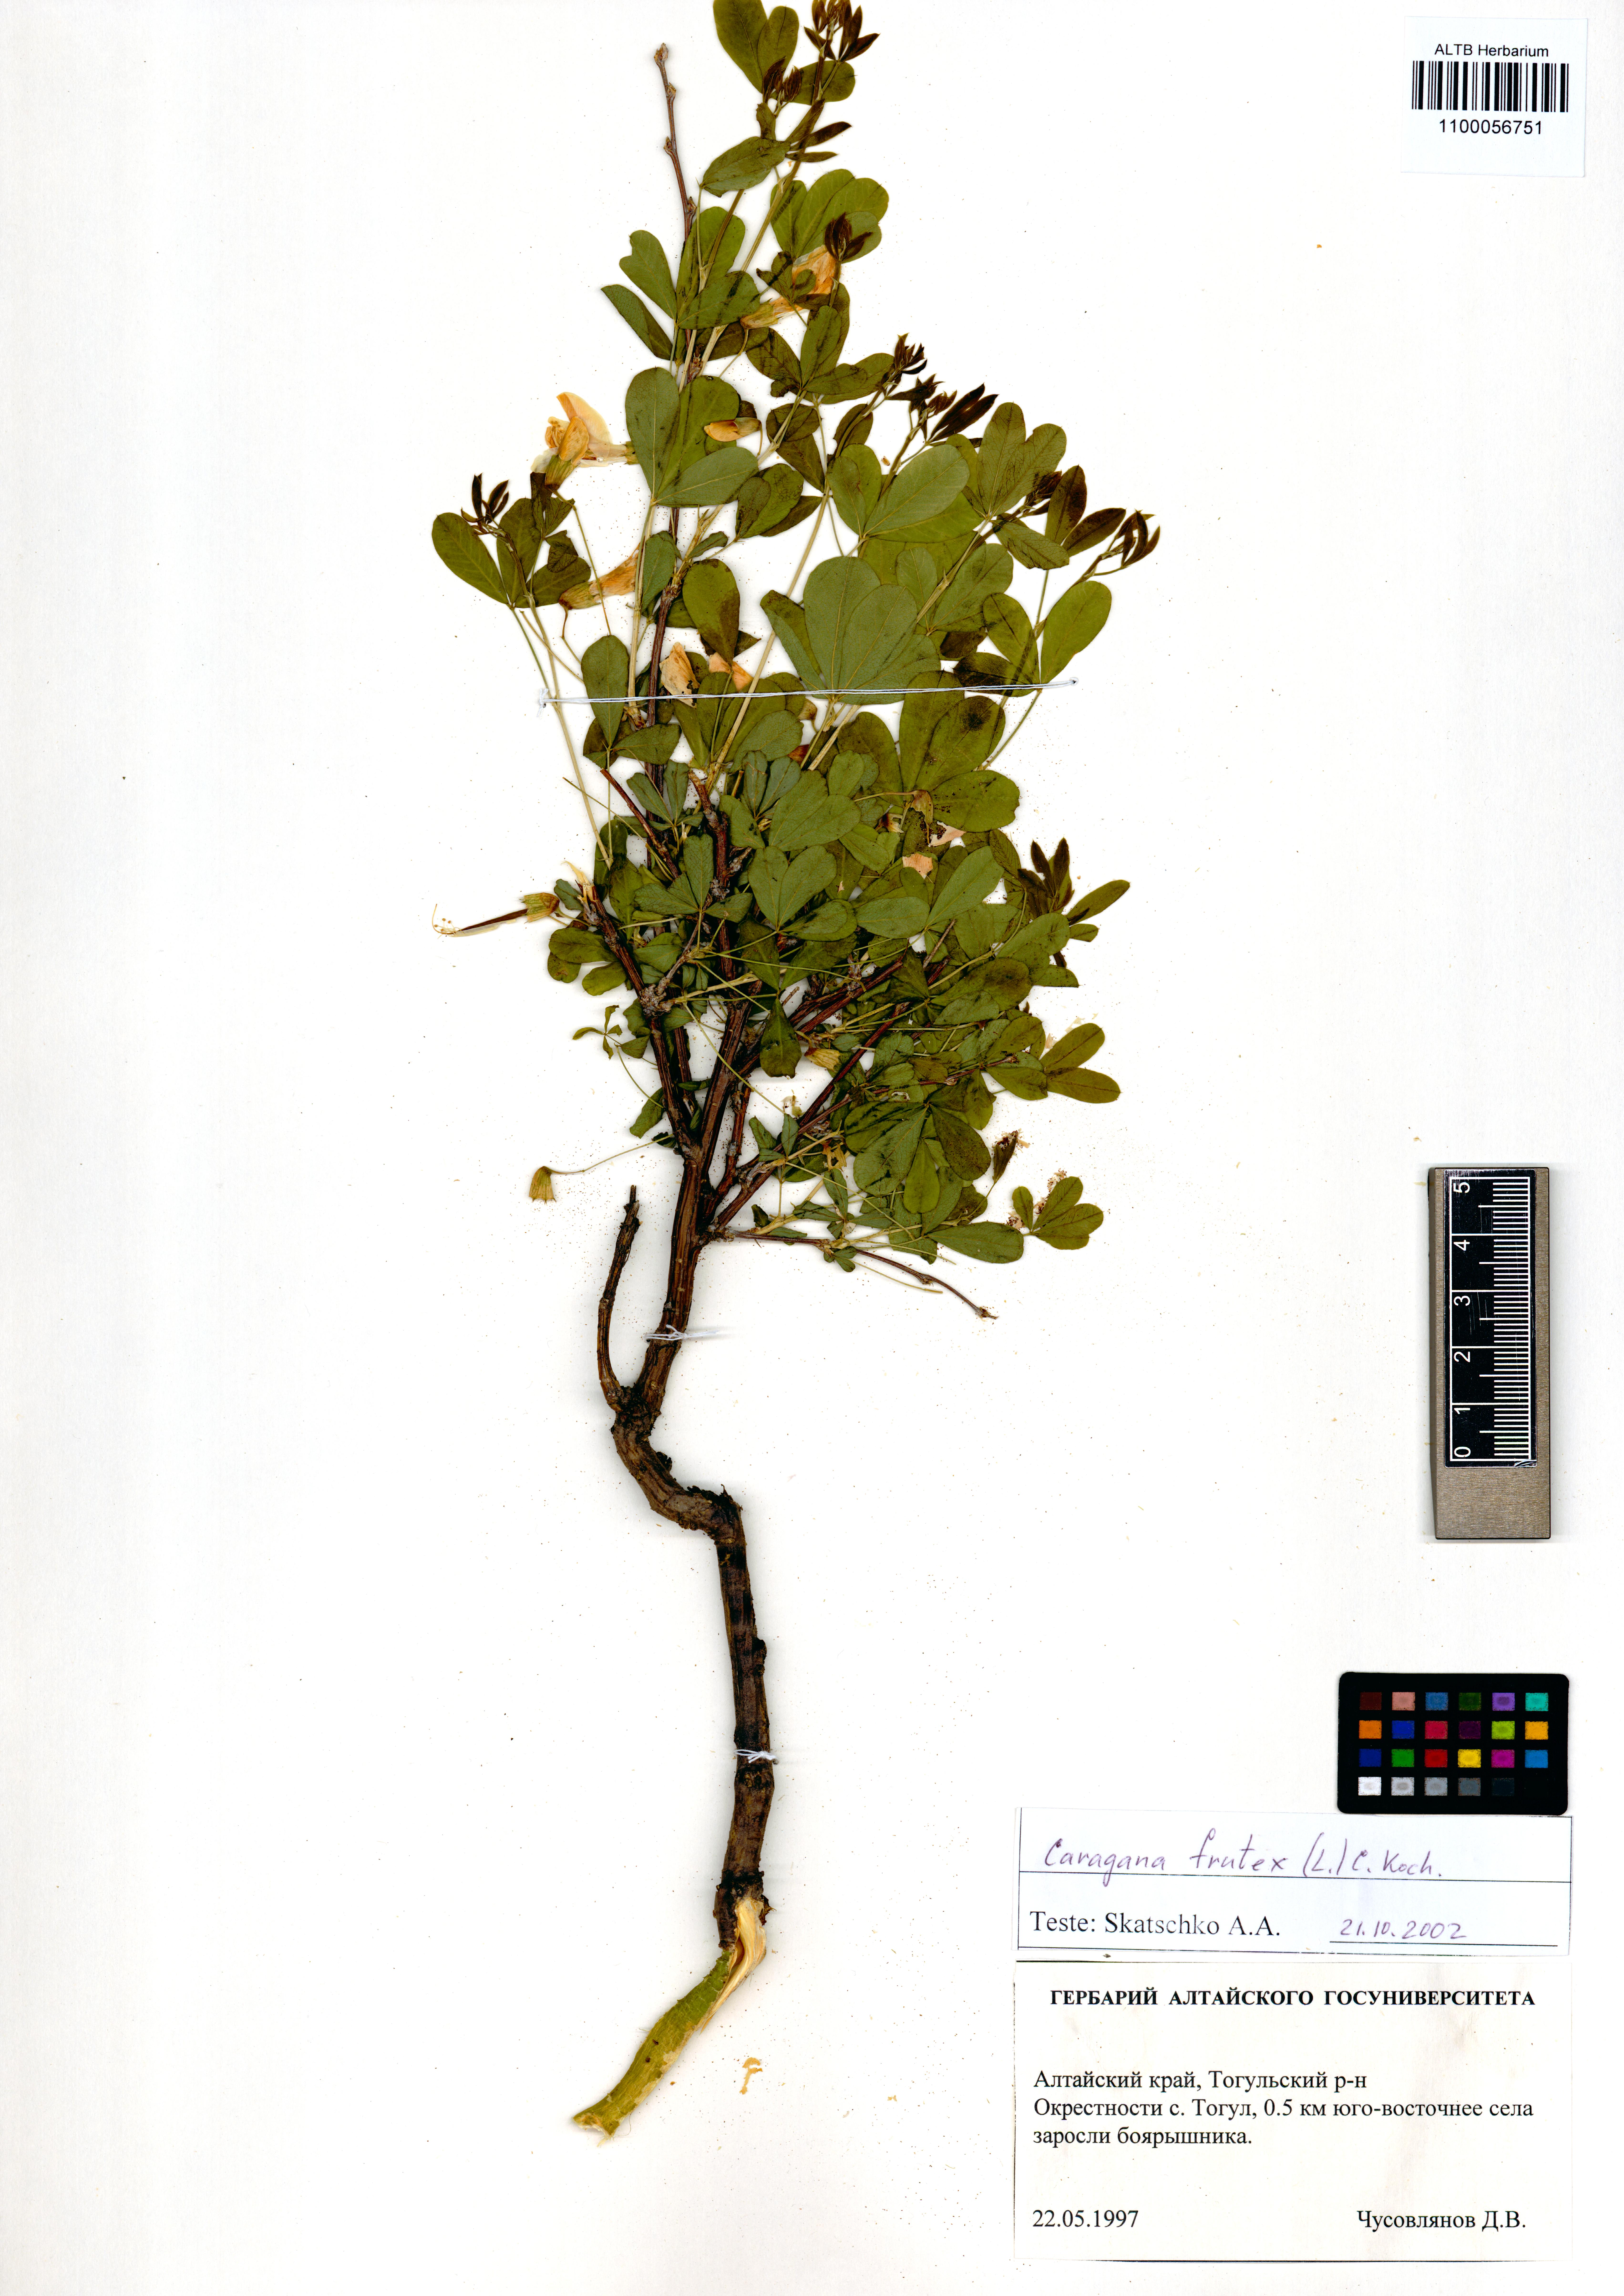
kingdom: Plantae
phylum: Tracheophyta
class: Magnoliopsida
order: Fabales
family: Fabaceae
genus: Caragana
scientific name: Caragana frutex
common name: Russian peashrub
